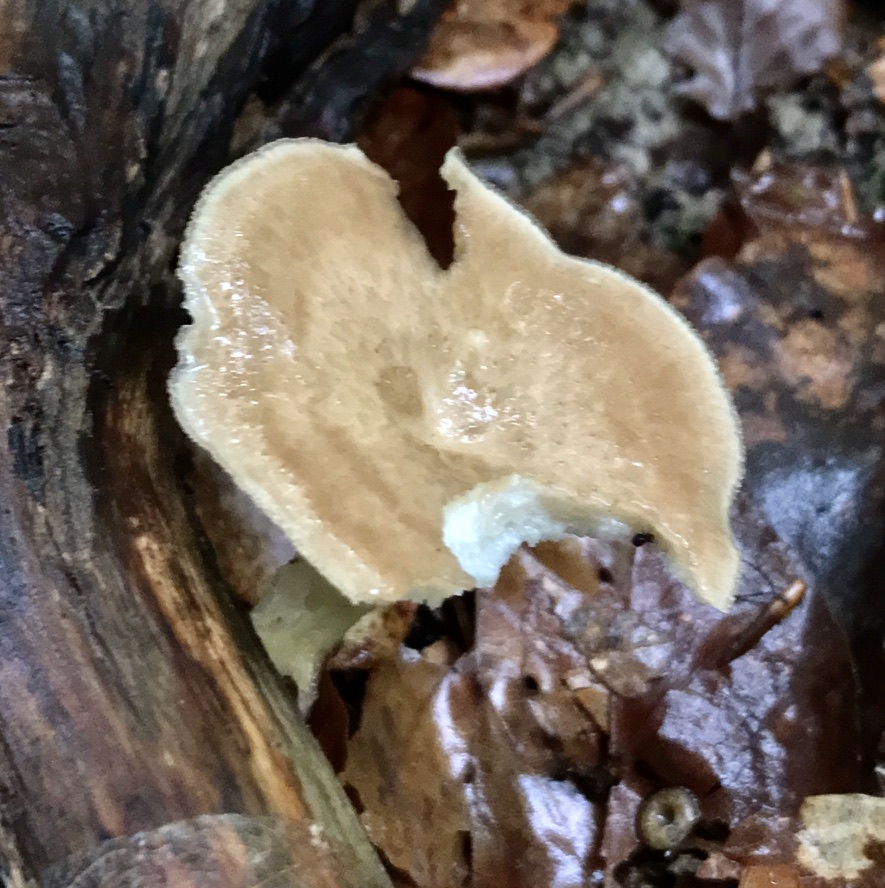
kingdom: Fungi
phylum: Basidiomycota
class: Agaricomycetes
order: Polyporales
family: Polyporaceae
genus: Polyporus
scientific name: Polyporus tuberaster
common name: knoldet stilkporesvamp
